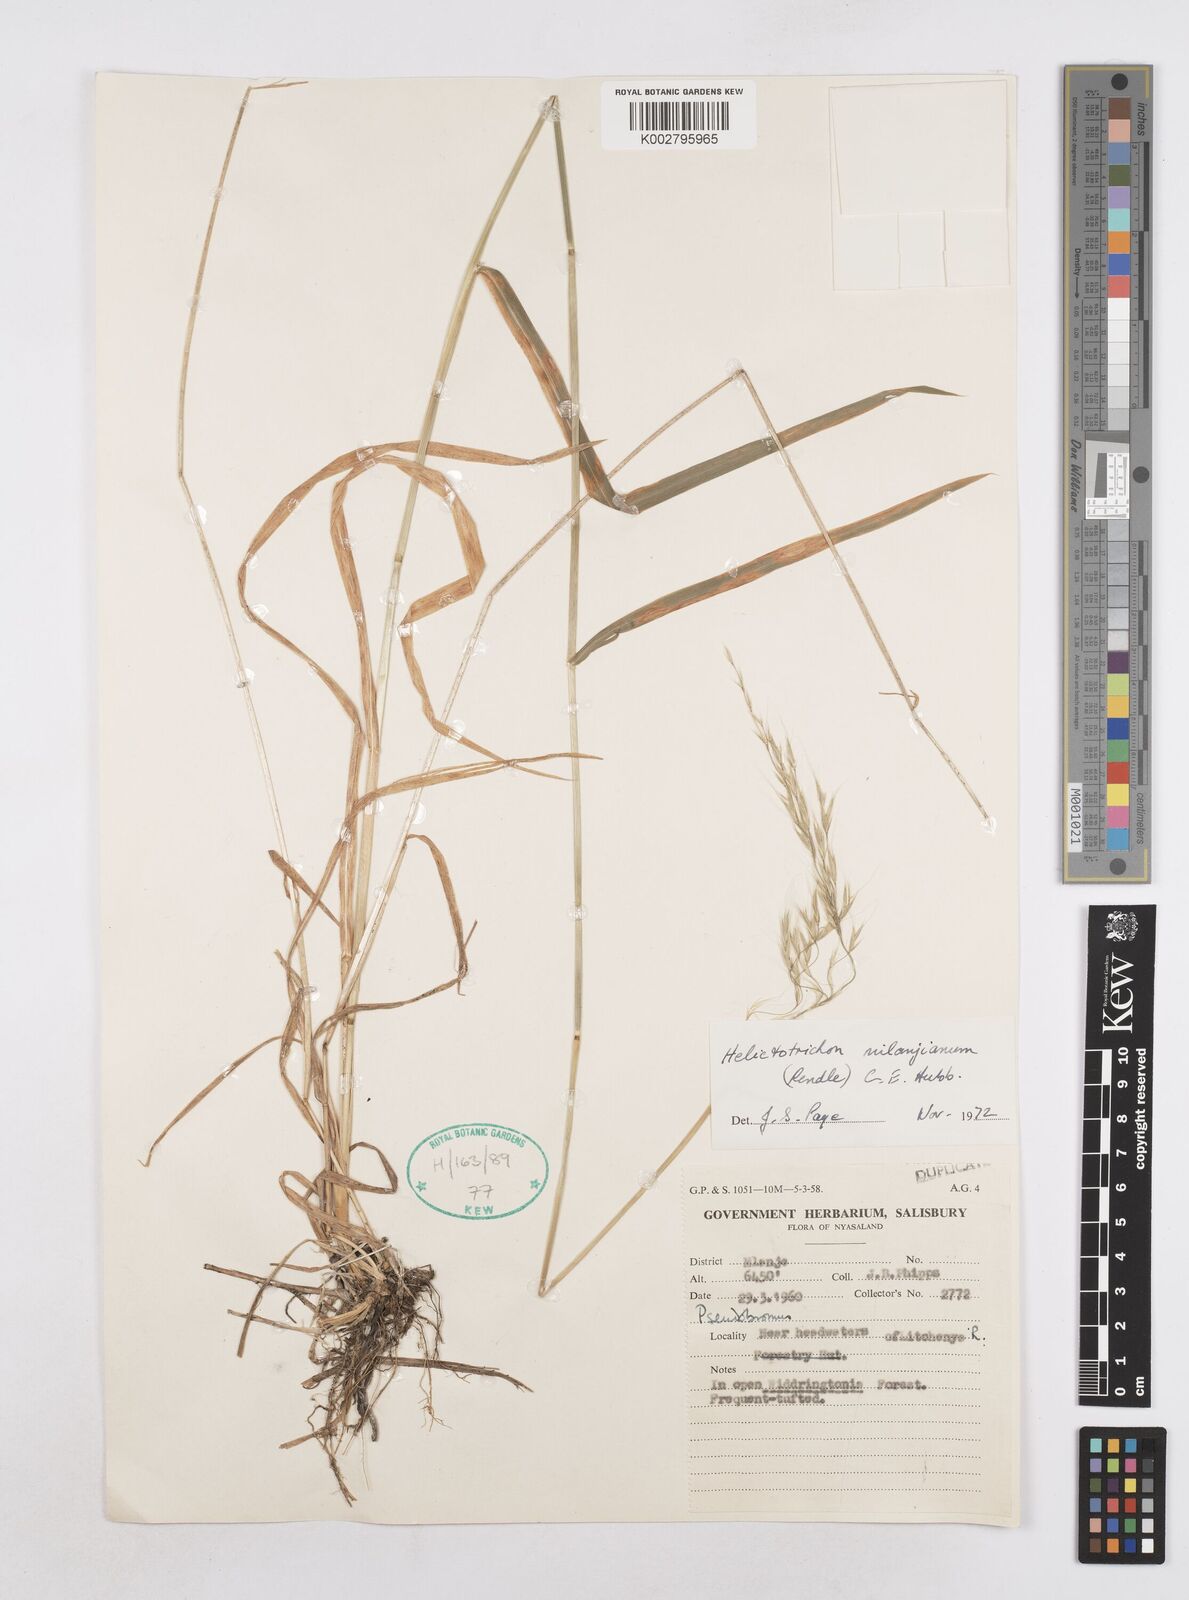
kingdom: Plantae
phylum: Tracheophyta
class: Liliopsida
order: Poales
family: Poaceae
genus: Trisetopsis
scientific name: Trisetopsis milanjiana
